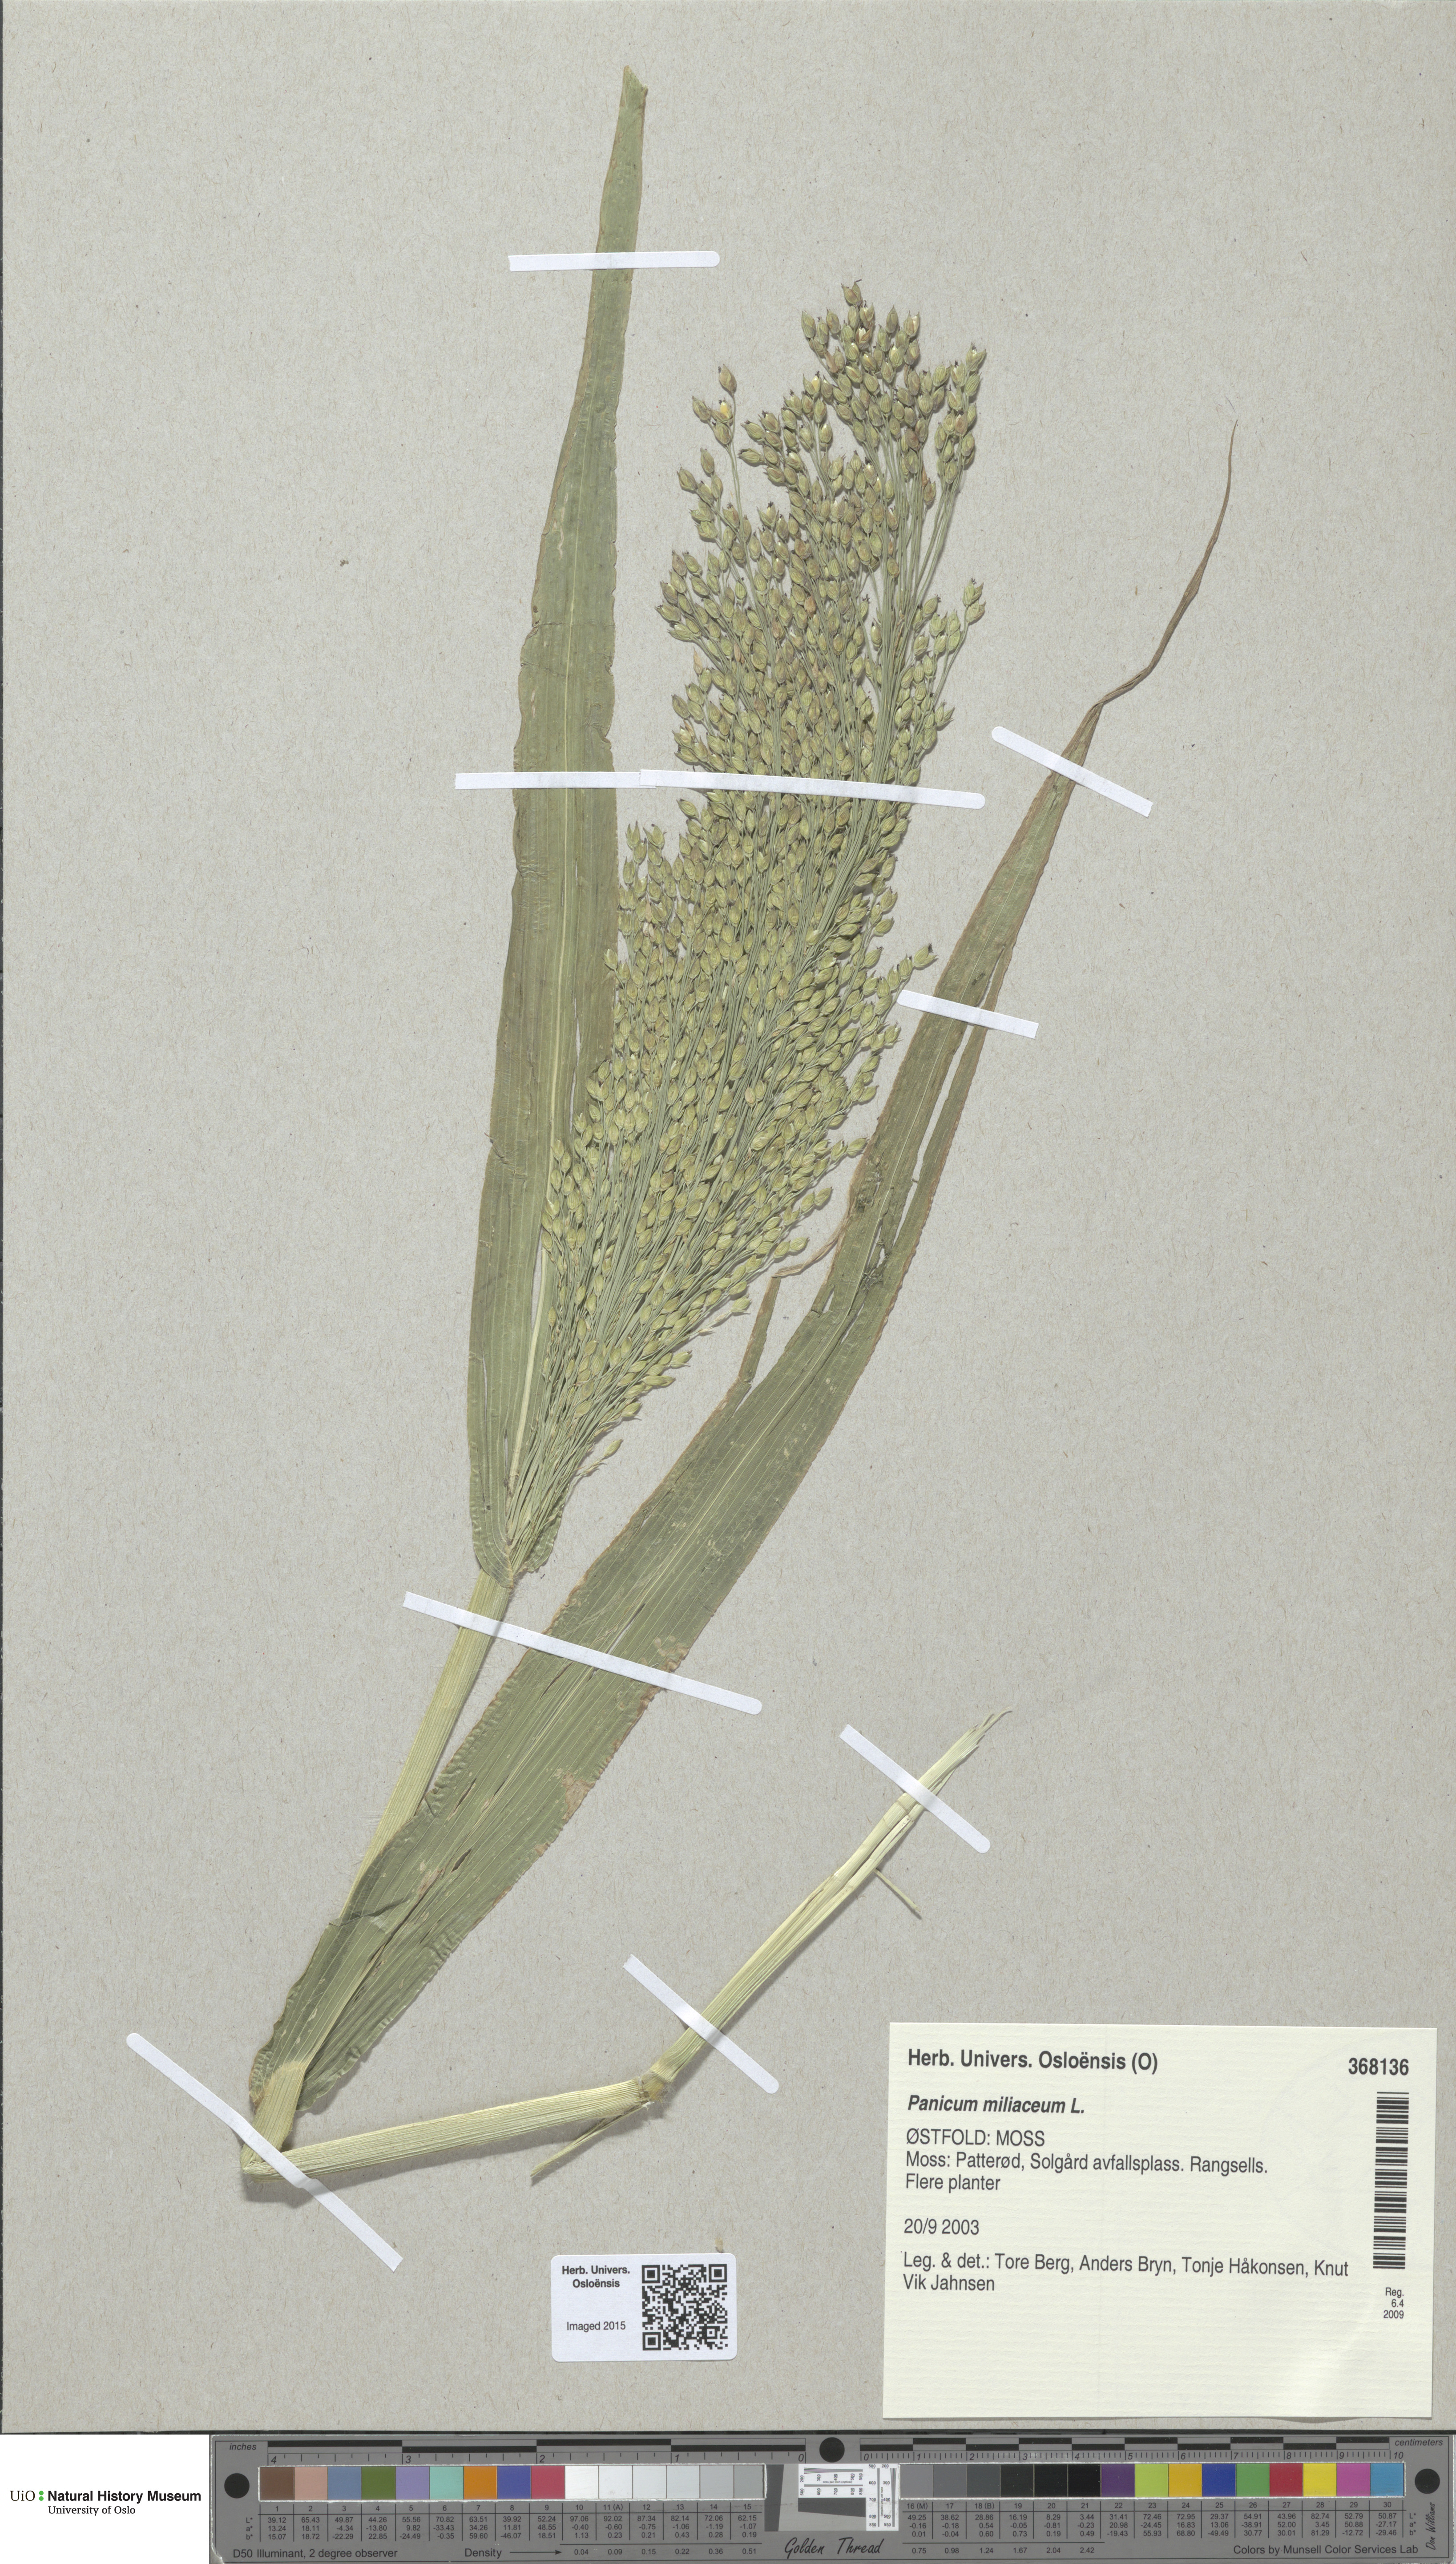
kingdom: Plantae
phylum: Tracheophyta
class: Liliopsida
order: Poales
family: Poaceae
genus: Panicum
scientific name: Panicum miliaceum
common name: Common millet
